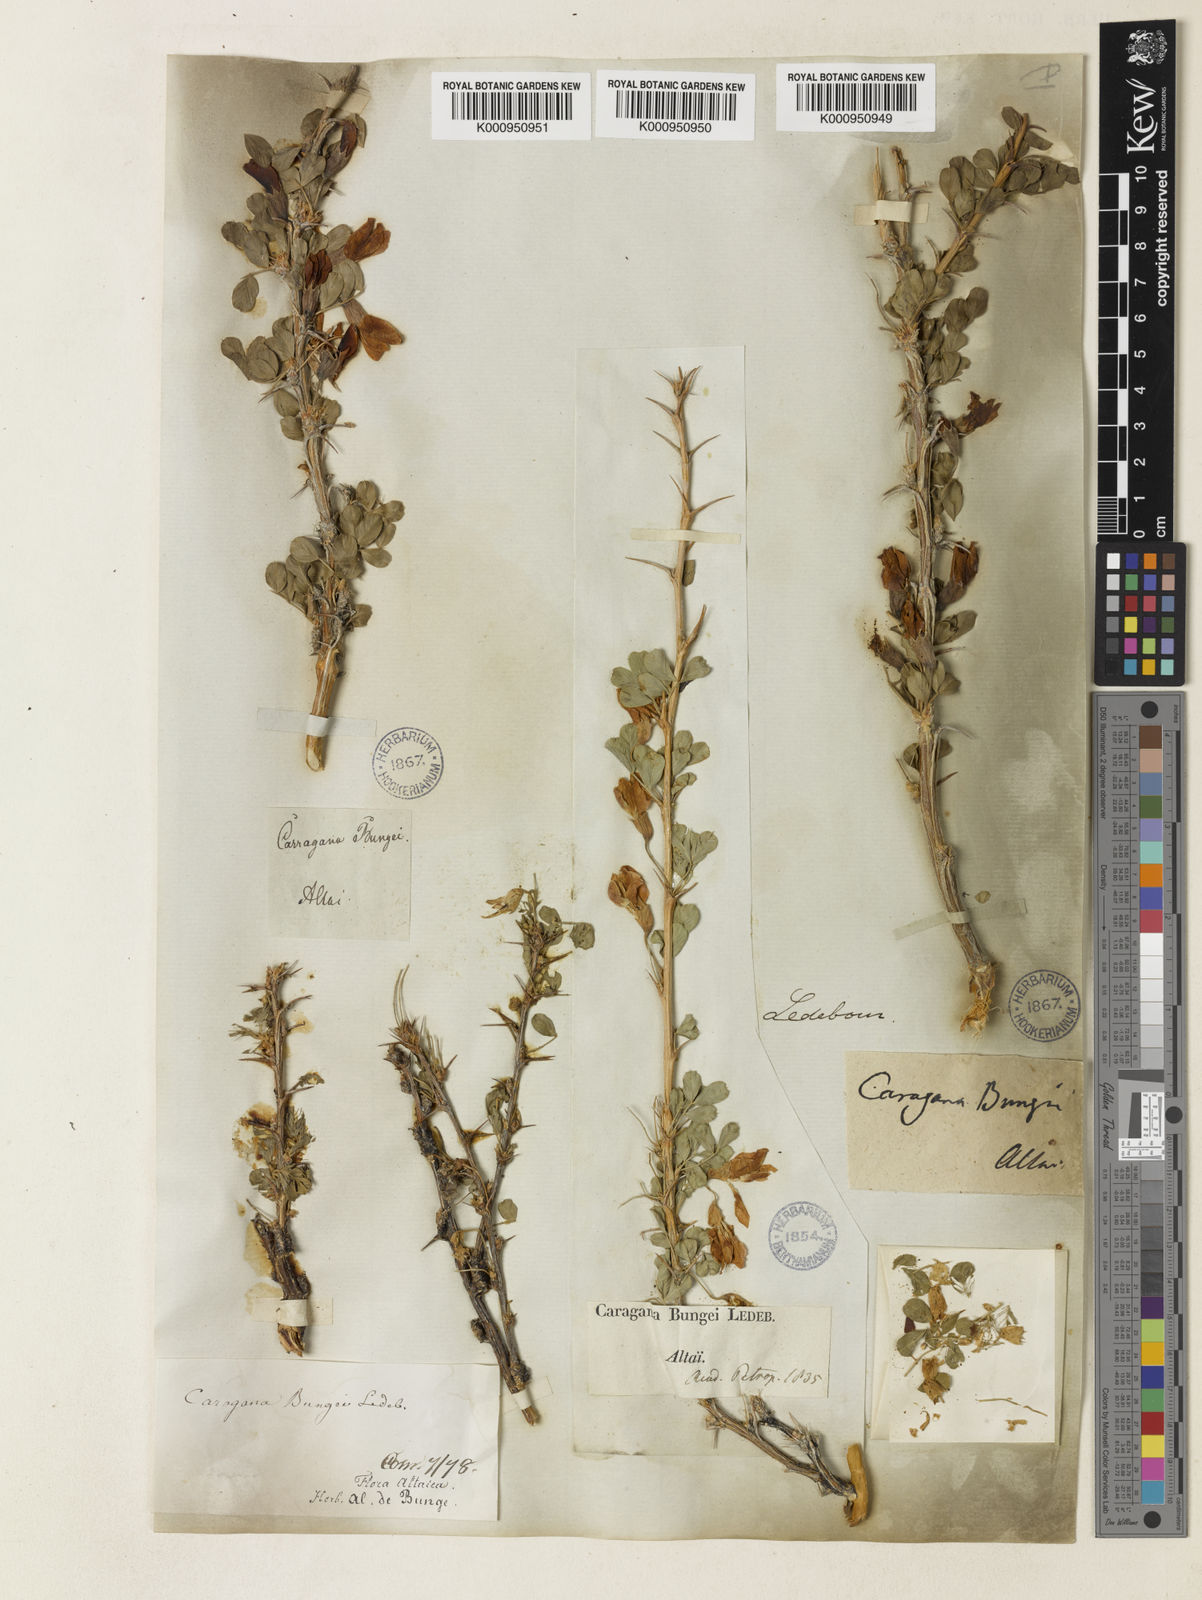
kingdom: Plantae
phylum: Tracheophyta
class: Magnoliopsida
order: Fabales
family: Fabaceae
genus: Caragana
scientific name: Caragana bungei
